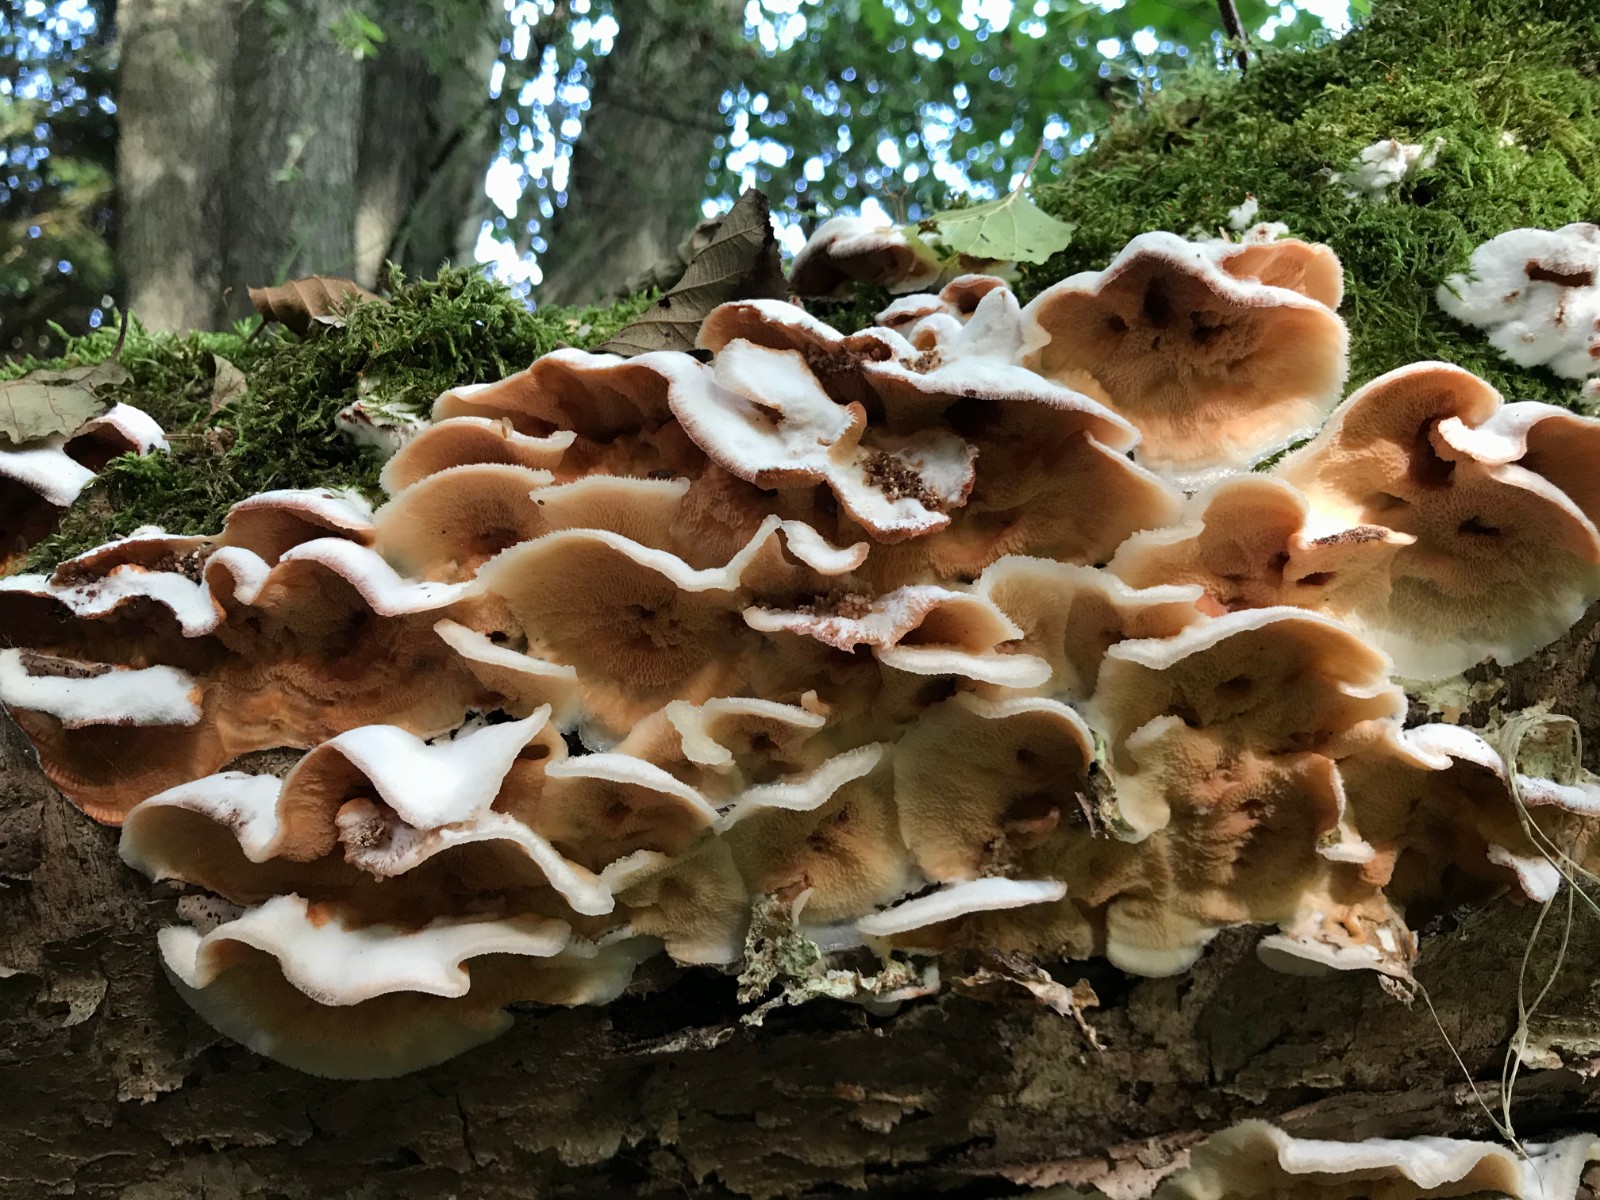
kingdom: Fungi
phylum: Basidiomycota
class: Agaricomycetes
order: Polyporales
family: Meruliaceae
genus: Phlebia
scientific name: Phlebia tremellosa
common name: bævrende åresvamp
